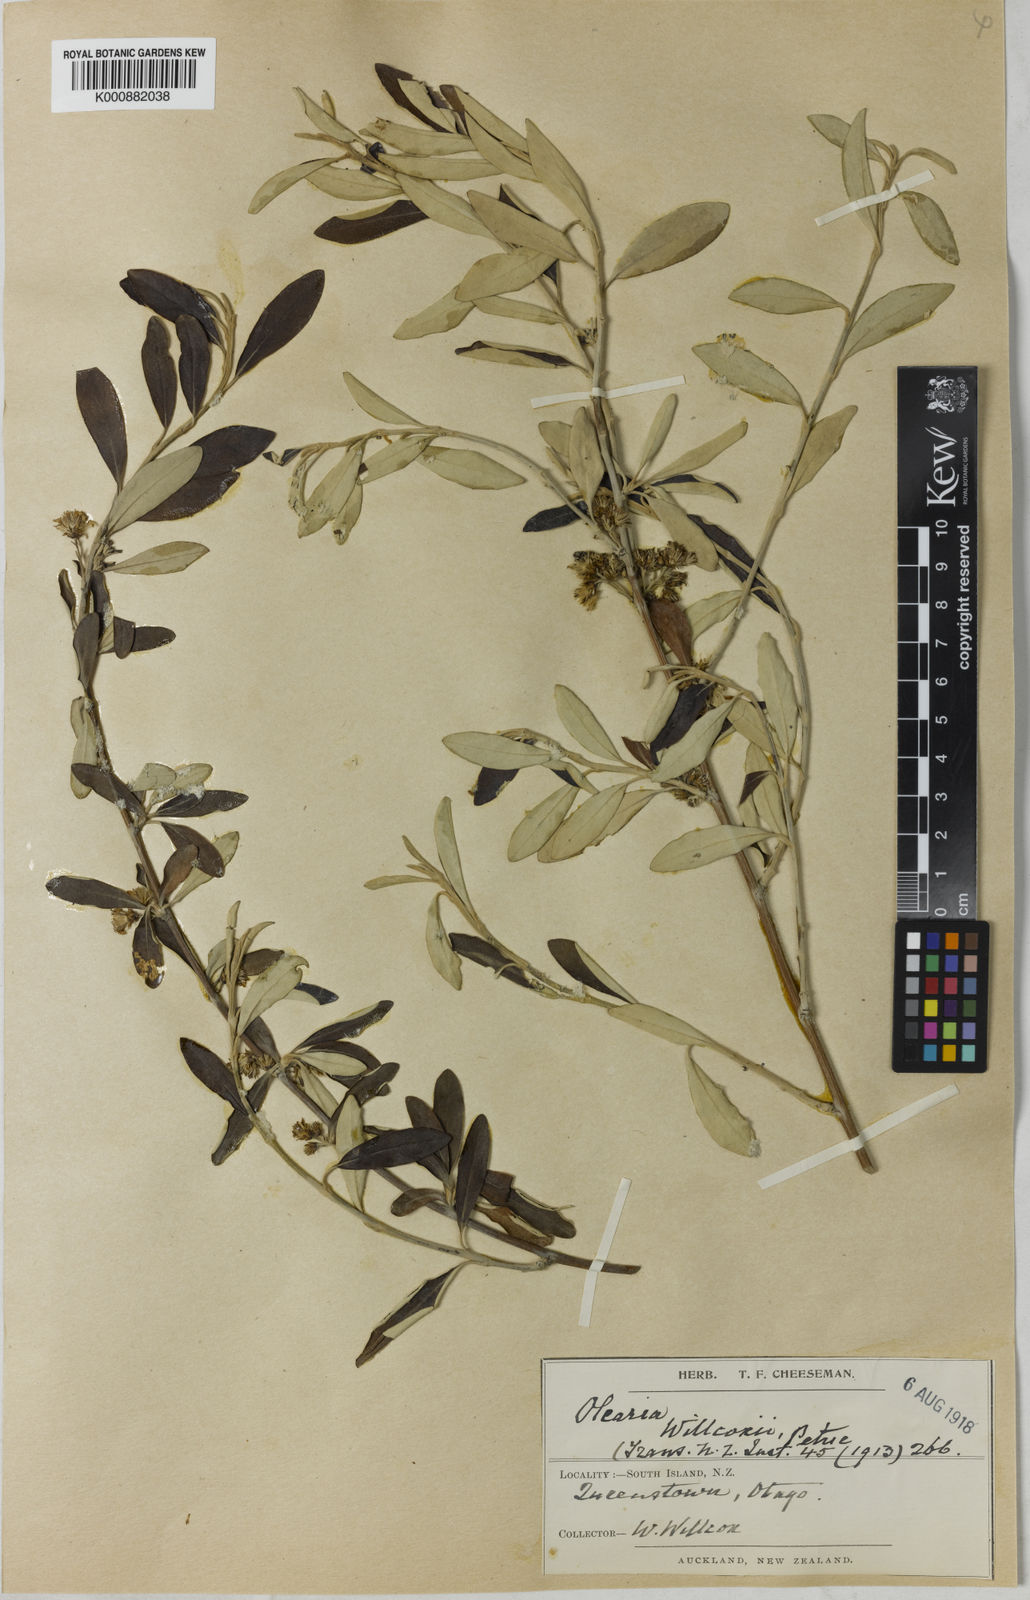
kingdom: Plantae
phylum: Tracheophyta
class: Magnoliopsida
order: Asterales
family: Asteraceae
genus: Olearia
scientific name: Olearia oleifolia
